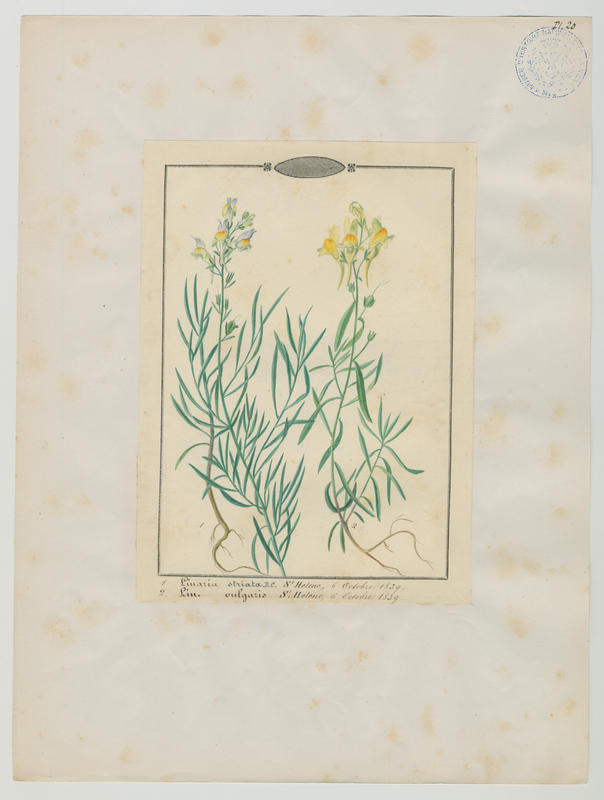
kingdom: Plantae
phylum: Tracheophyta
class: Magnoliopsida
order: Lamiales
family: Plantaginaceae
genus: Linaria
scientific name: Linaria vulgaris
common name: Butter and eggs
